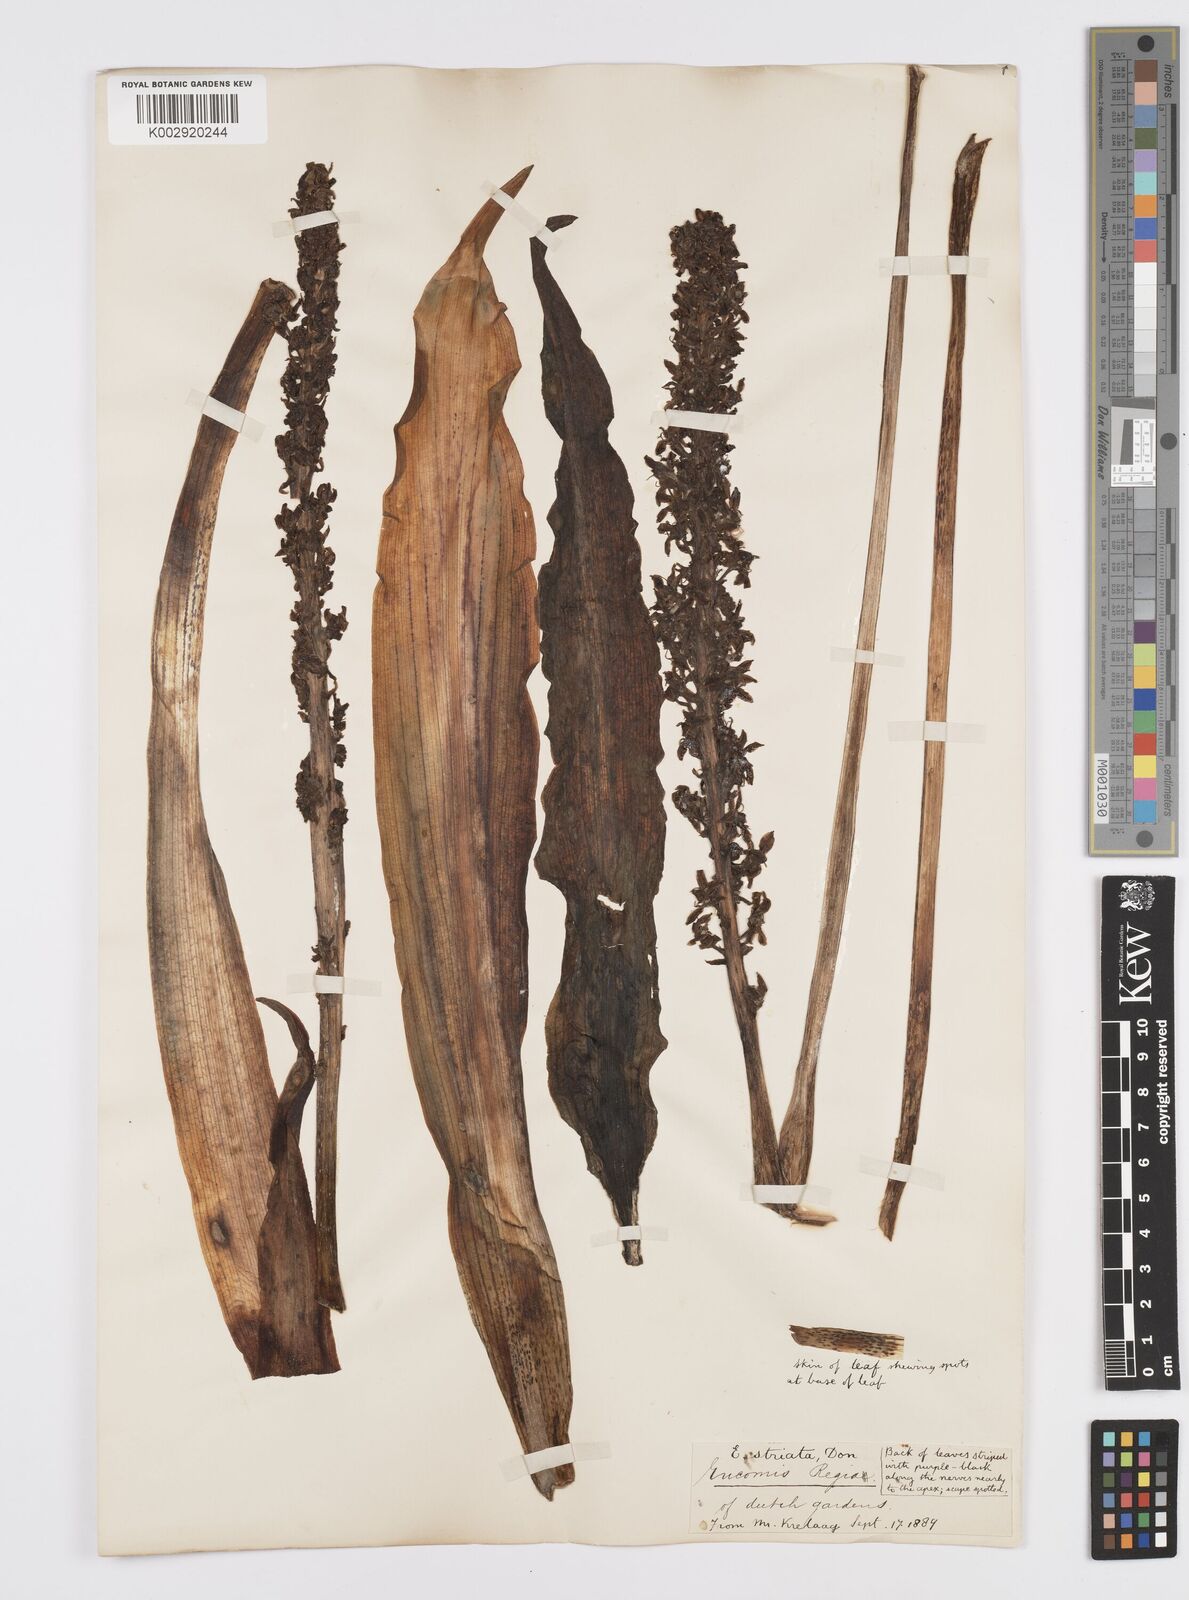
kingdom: Plantae
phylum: Tracheophyta
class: Liliopsida
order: Asparagales
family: Asparagaceae
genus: Eucomis
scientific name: Eucomis comosa
